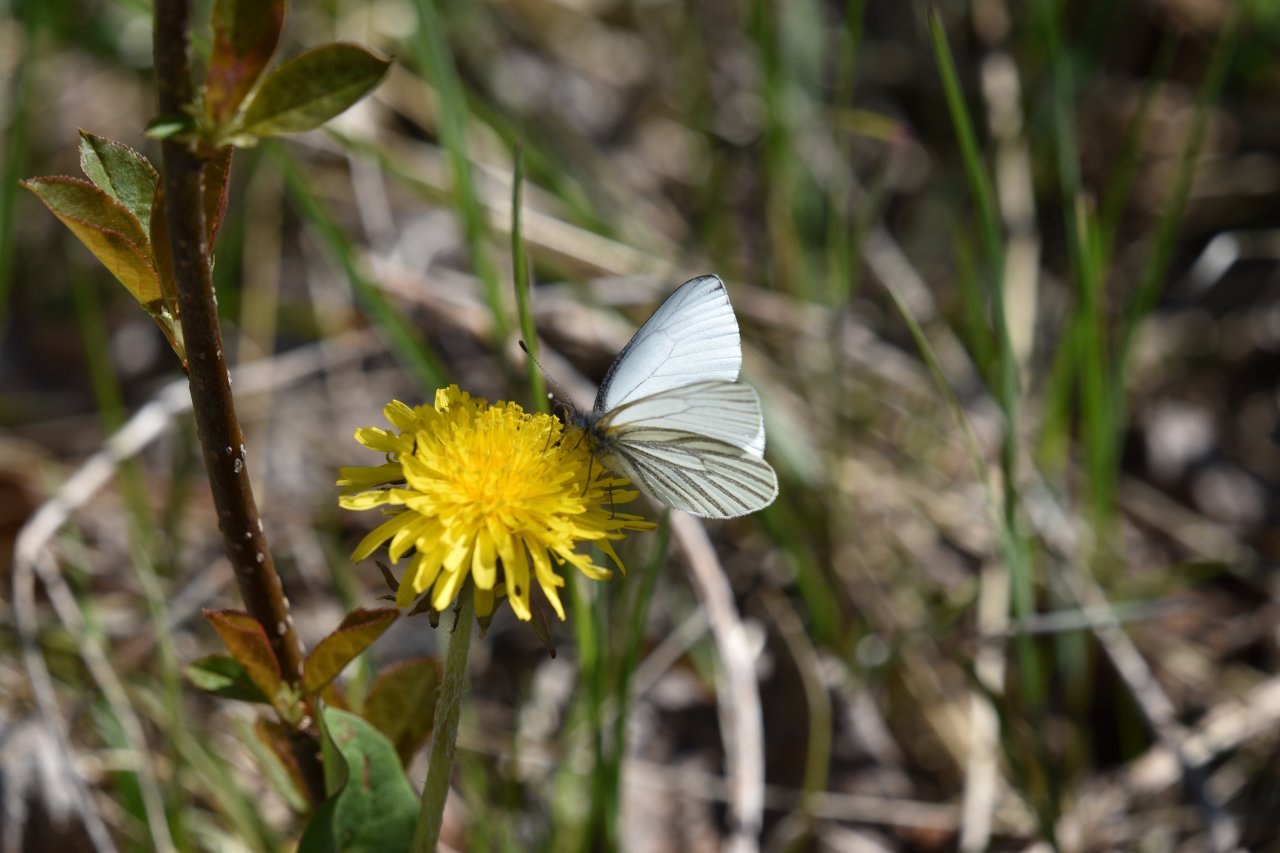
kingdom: Animalia
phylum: Arthropoda
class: Insecta
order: Lepidoptera
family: Pieridae
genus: Pieris
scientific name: Pieris oleracea
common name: Mustard White
